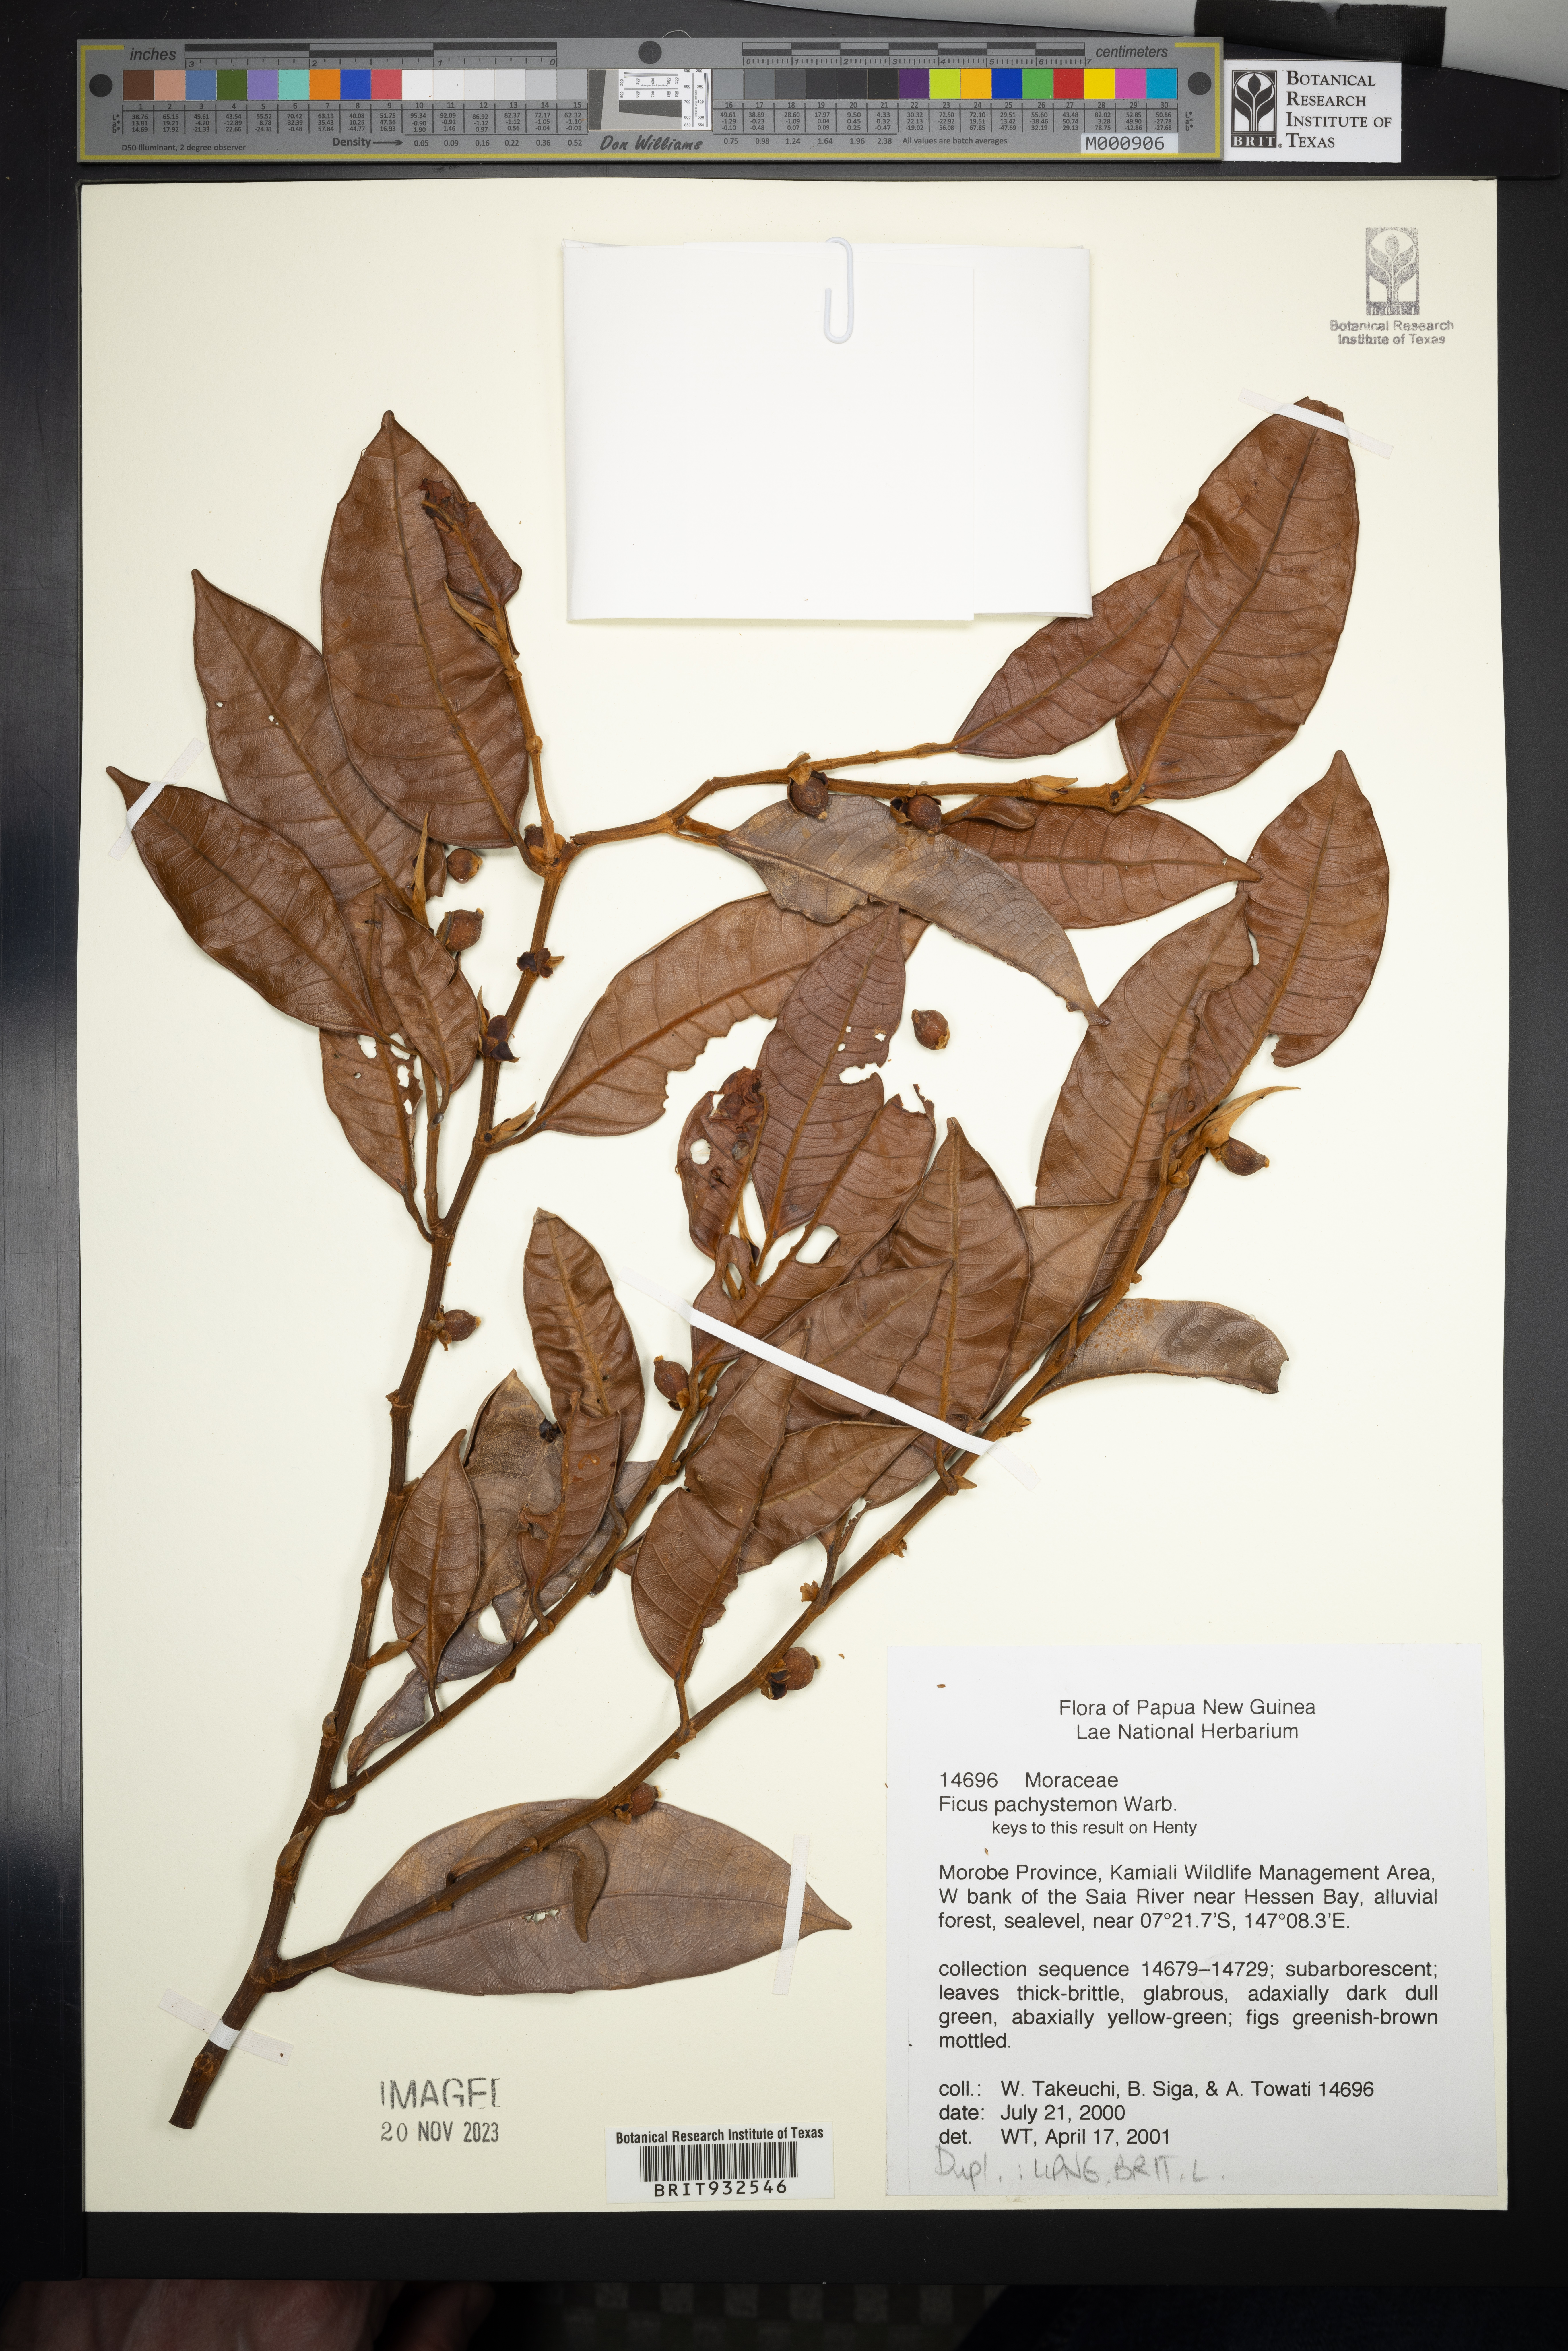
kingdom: Plantae
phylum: Tracheophyta
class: Magnoliopsida
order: Rosales
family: Moraceae
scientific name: Moraceae
